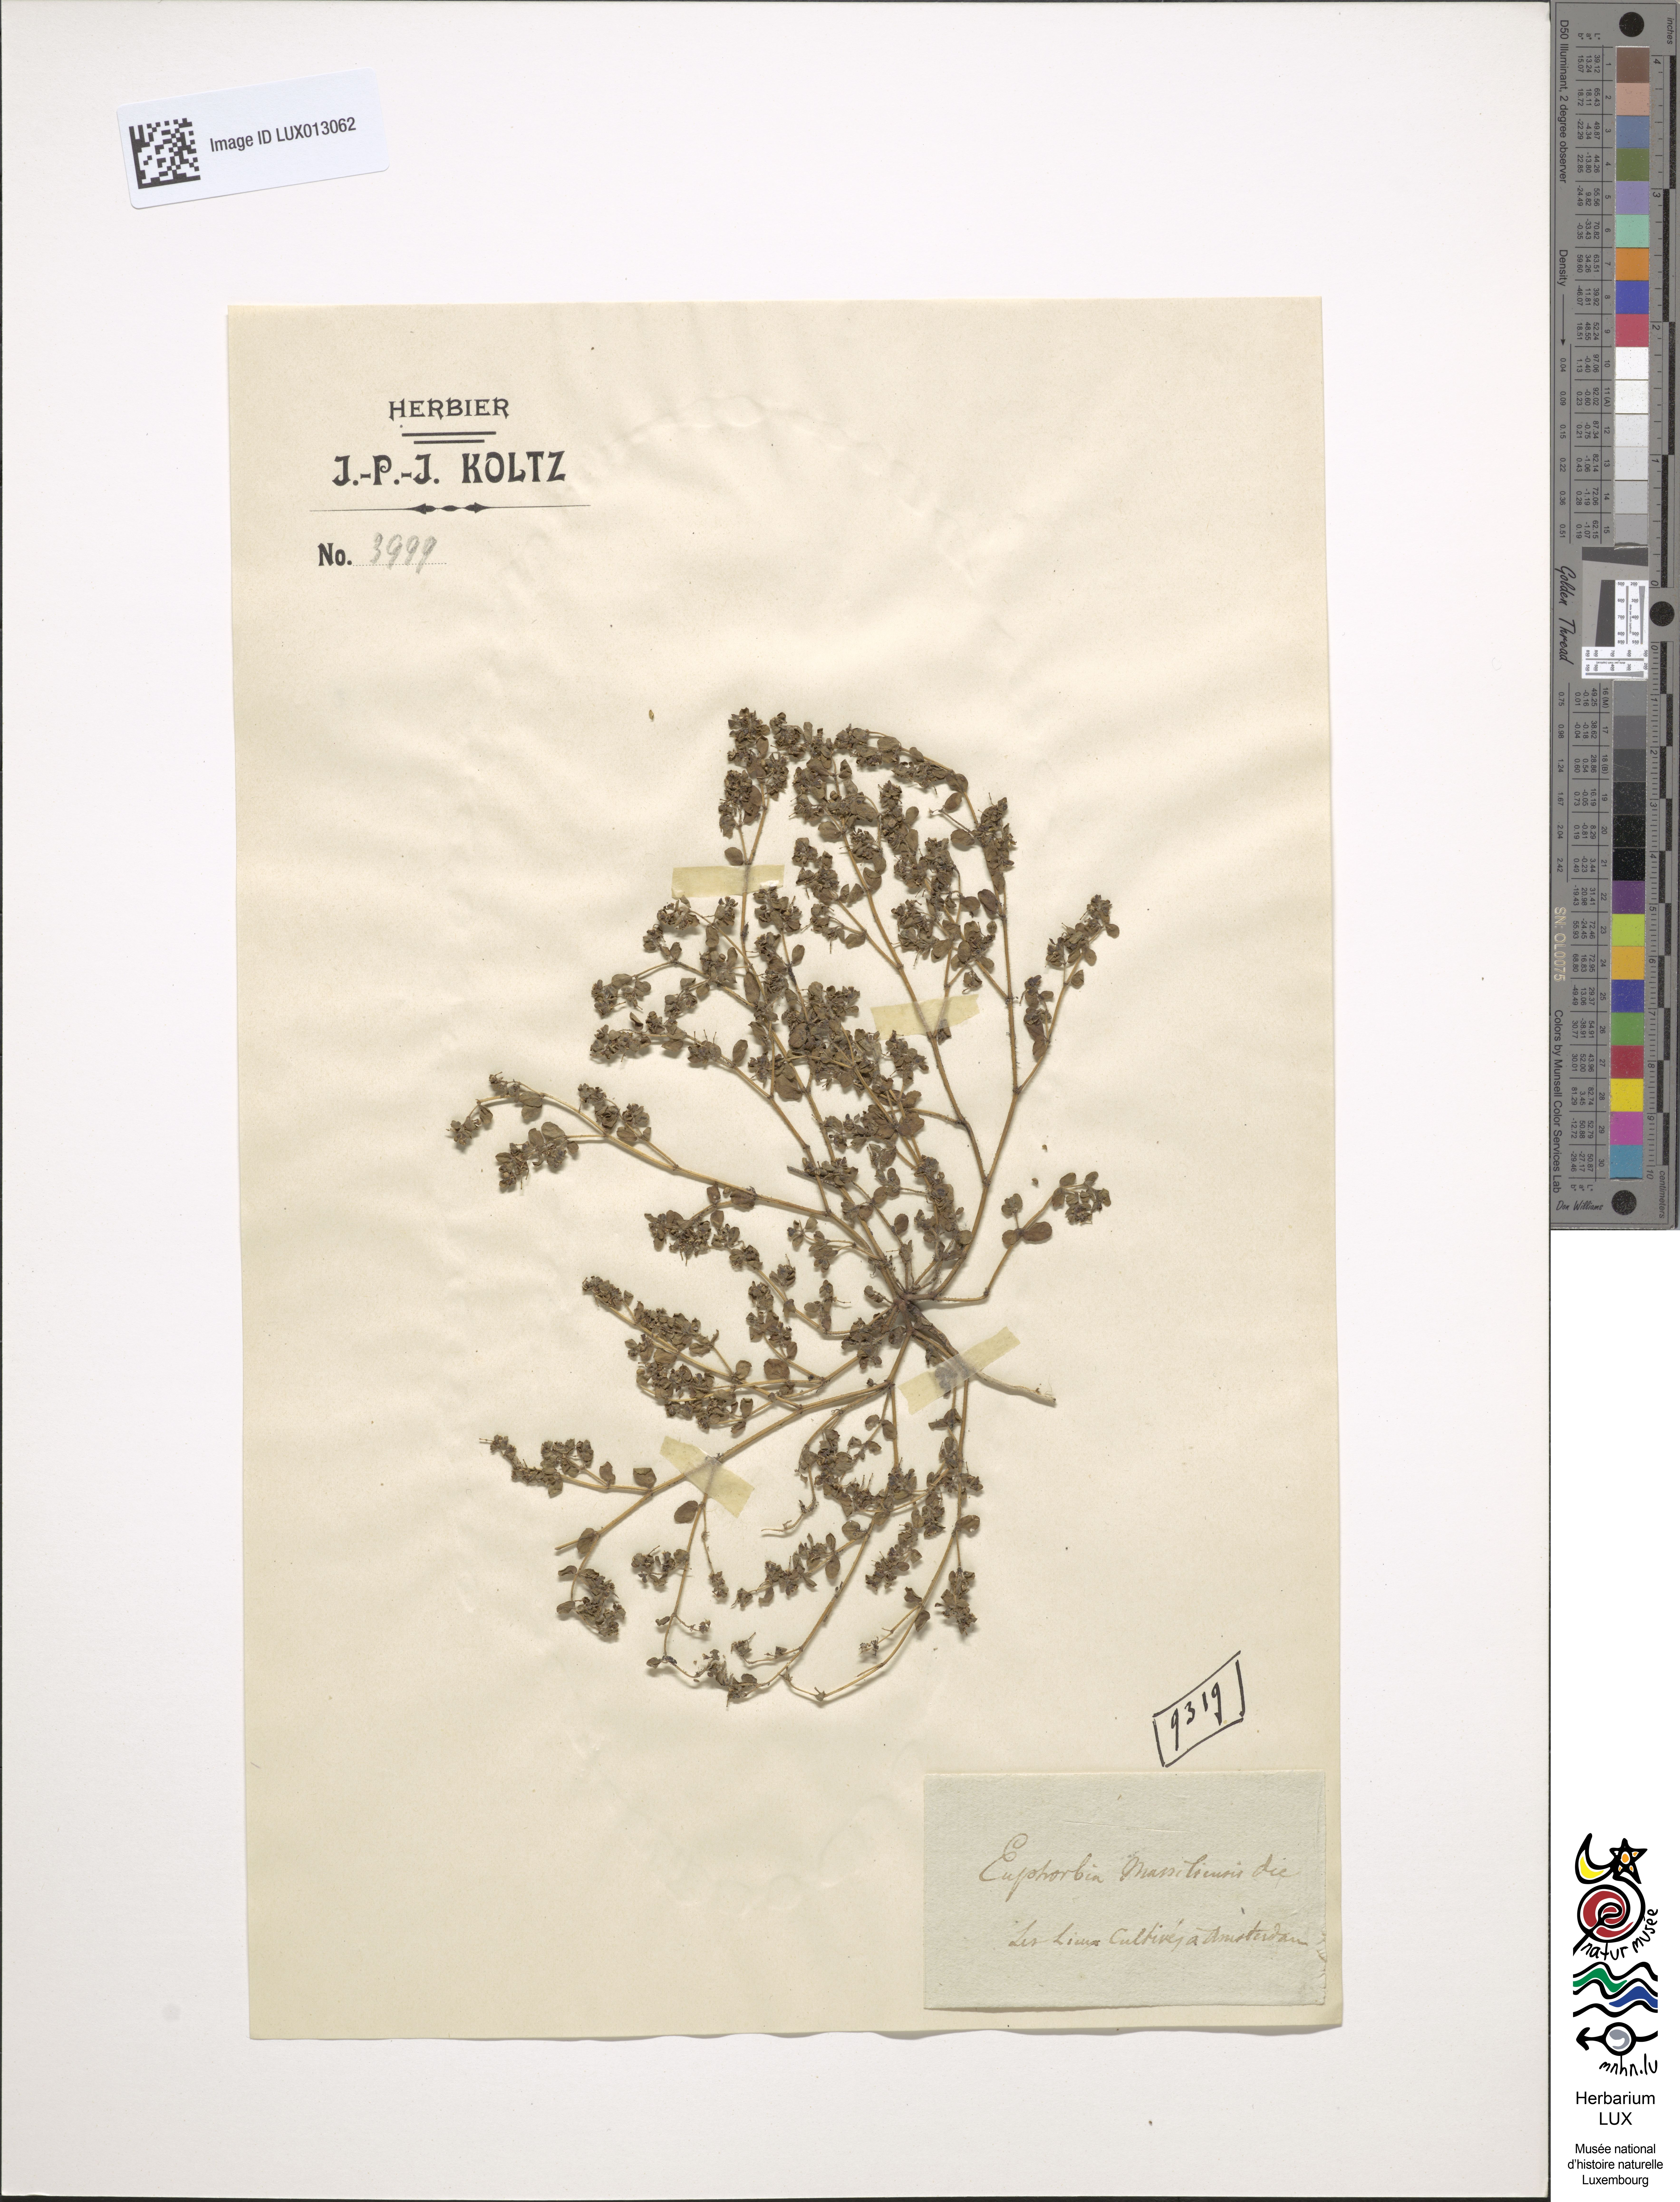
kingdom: Plantae
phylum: Tracheophyta
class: Magnoliopsida
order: Malpighiales
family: Euphorbiaceae
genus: Euphorbia
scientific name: Euphorbia chamaesyce
